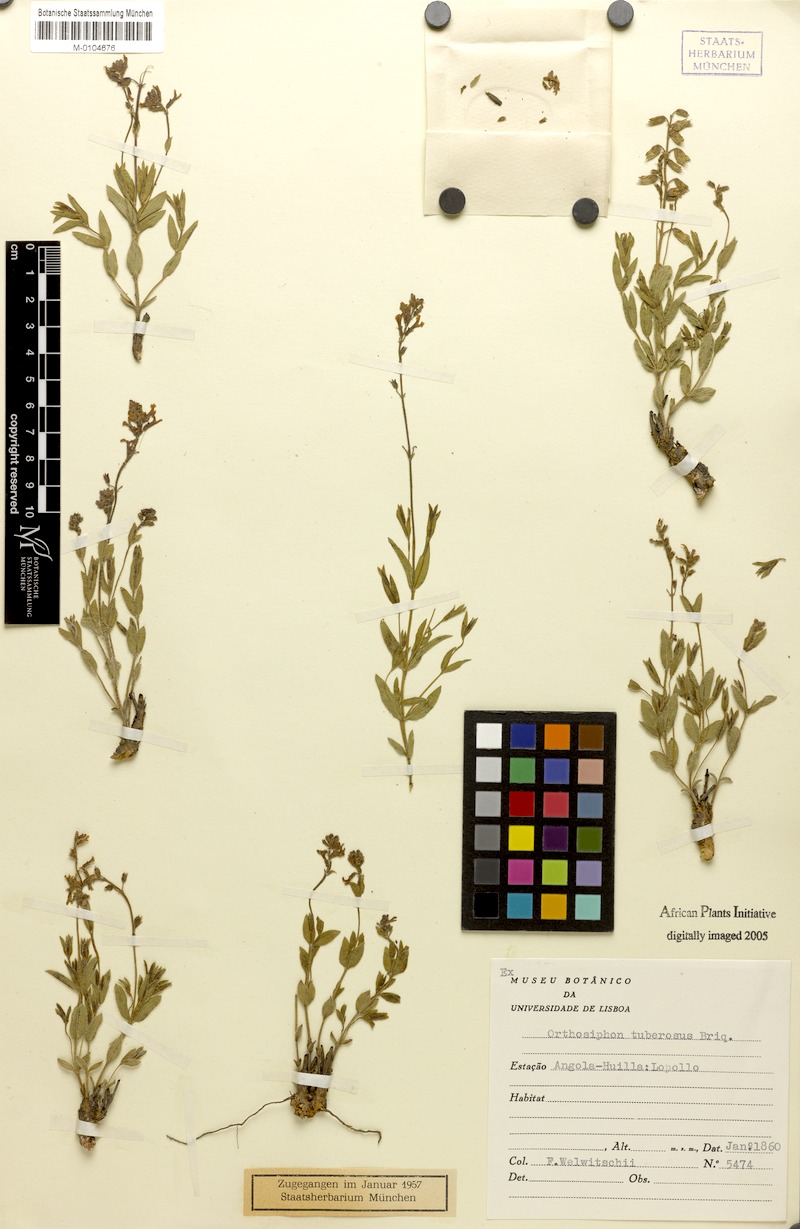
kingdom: Plantae
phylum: Tracheophyta
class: Magnoliopsida
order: Lamiales
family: Lamiaceae
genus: Fuerstia
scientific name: Fuerstia rigida
